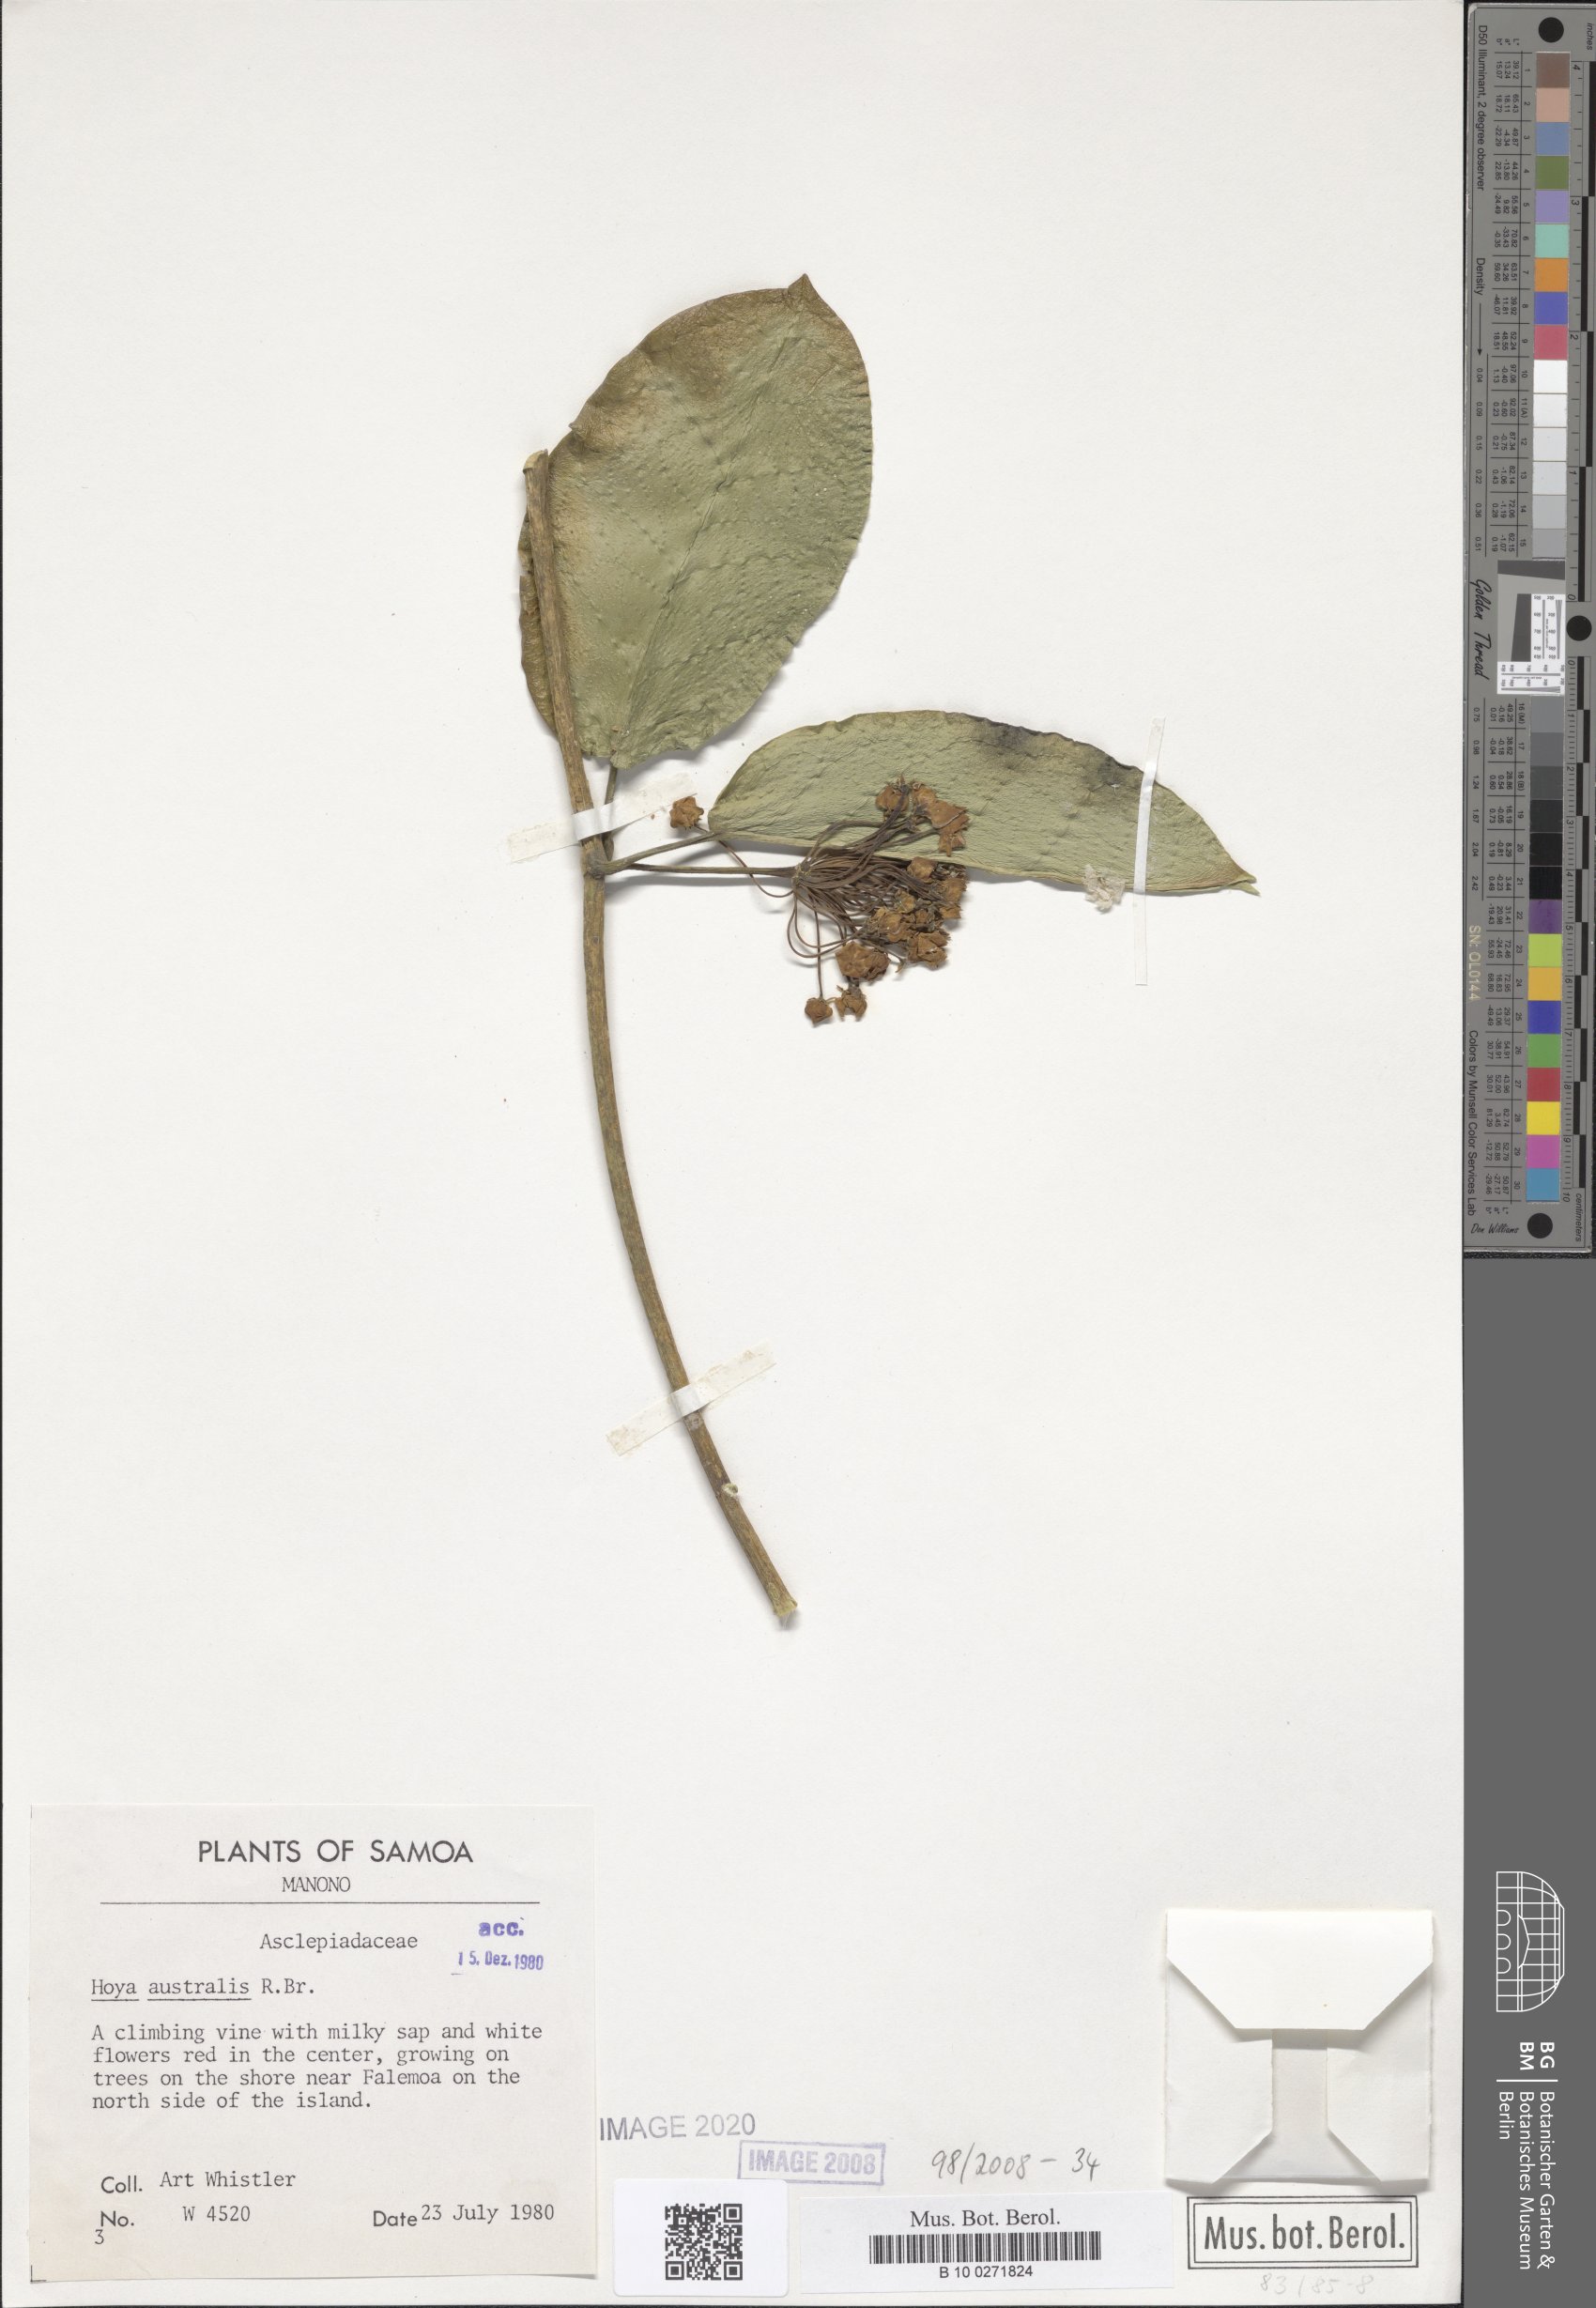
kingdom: Plantae
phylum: Tracheophyta
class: Magnoliopsida
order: Gentianales
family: Apocynaceae
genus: Hoya
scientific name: Hoya australis
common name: Wax flower
